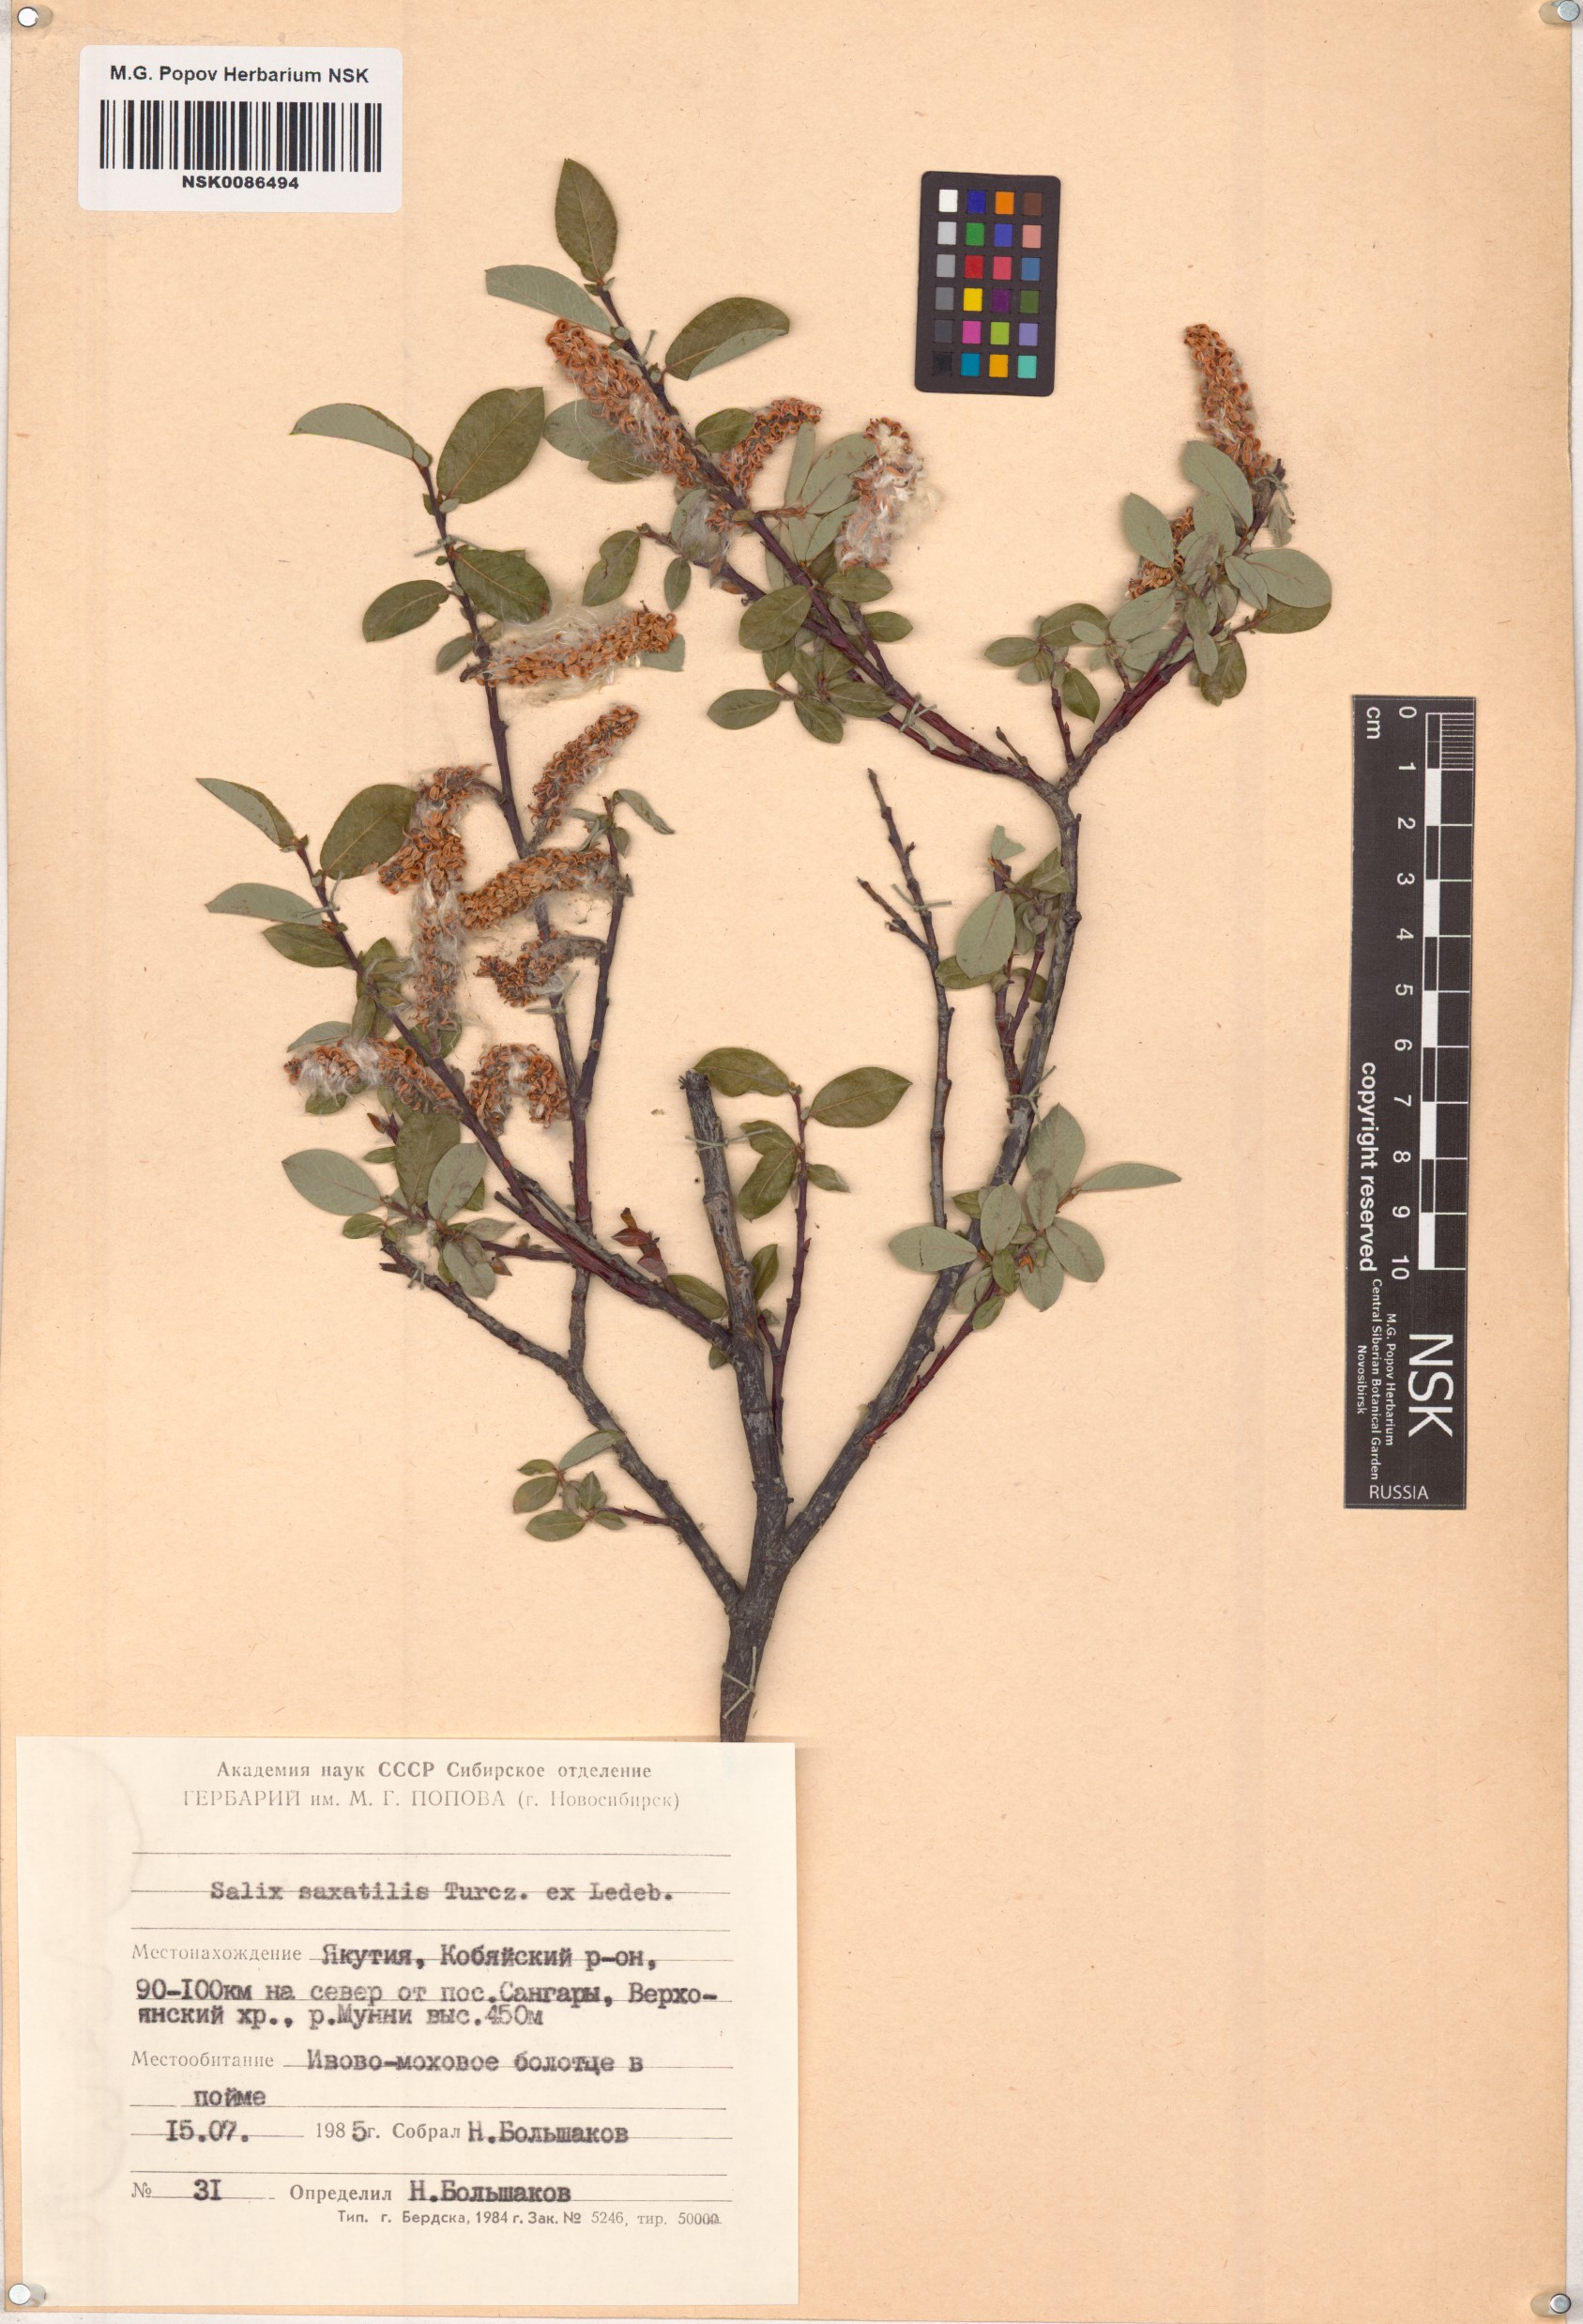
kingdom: Plantae
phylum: Tracheophyta
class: Magnoliopsida
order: Malpighiales
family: Salicaceae
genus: Salix
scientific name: Salix saxatilis
